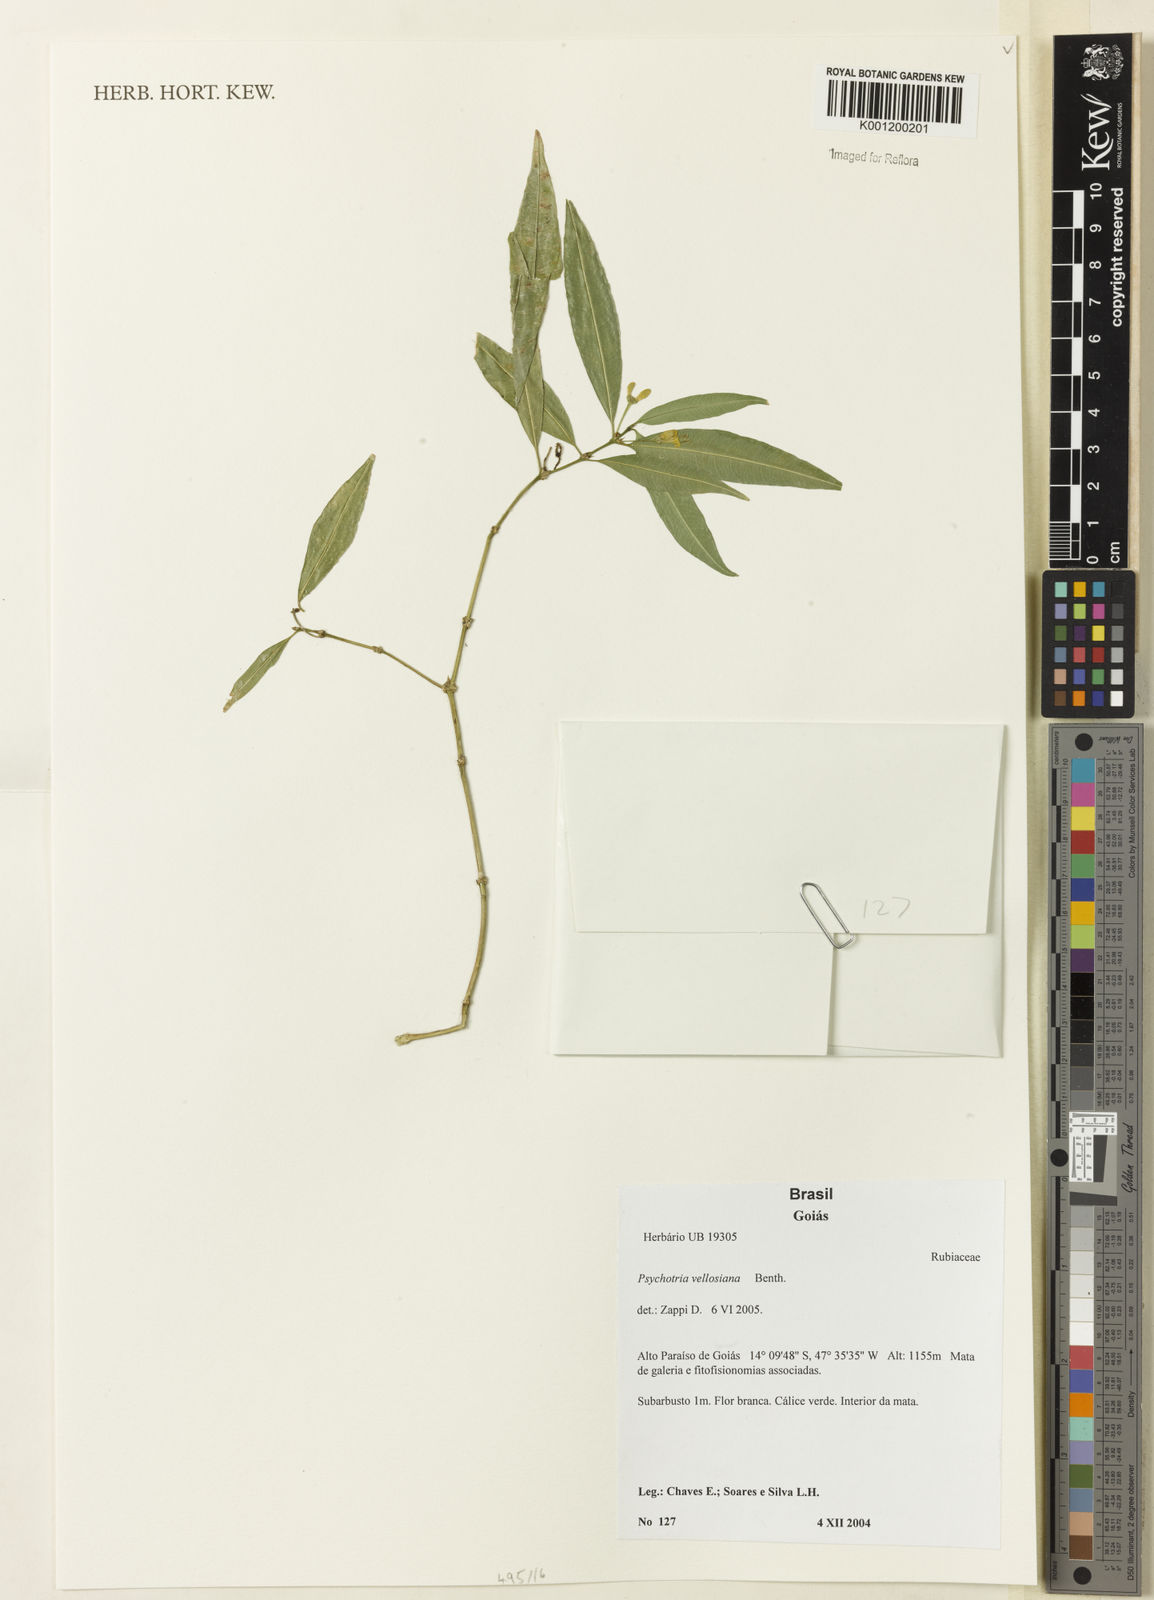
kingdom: Plantae
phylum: Tracheophyta
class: Magnoliopsida
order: Gentianales
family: Rubiaceae
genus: Rudgea
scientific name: Rudgea sessilis
